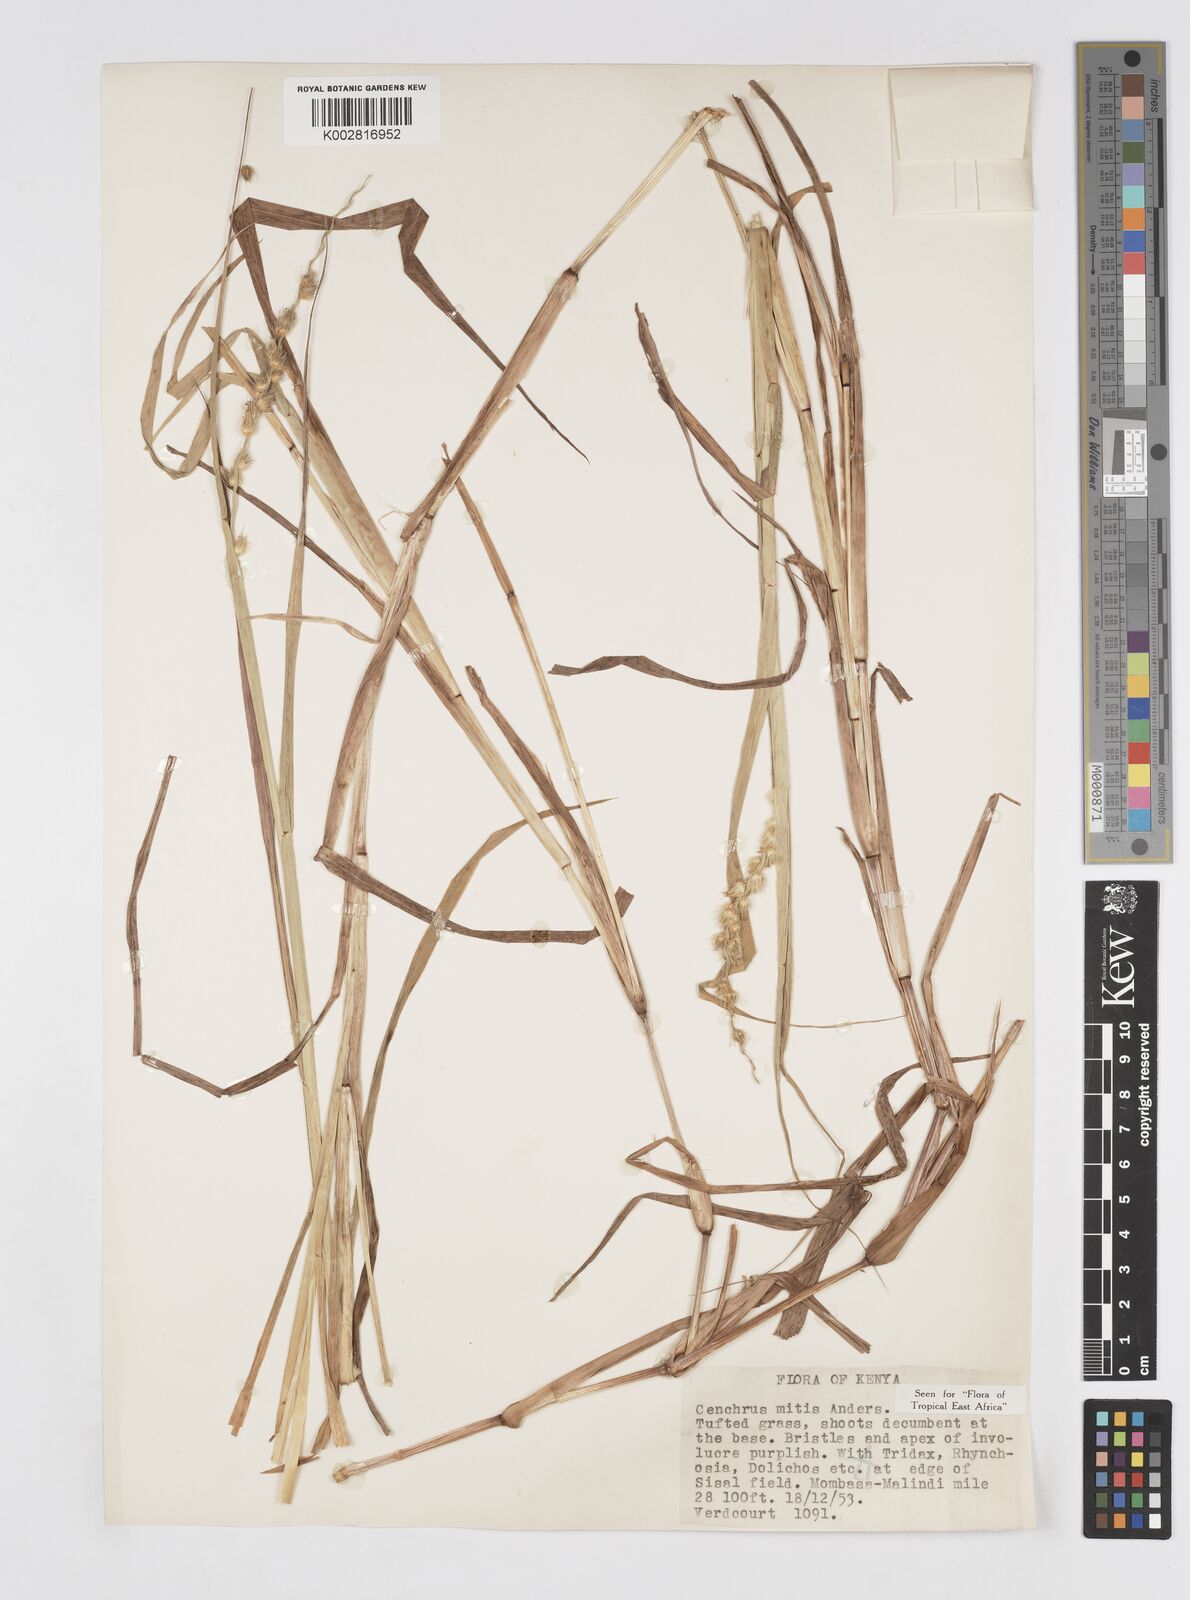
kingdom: Plantae
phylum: Tracheophyta
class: Liliopsida
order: Poales
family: Poaceae
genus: Cenchrus
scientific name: Cenchrus mitis
